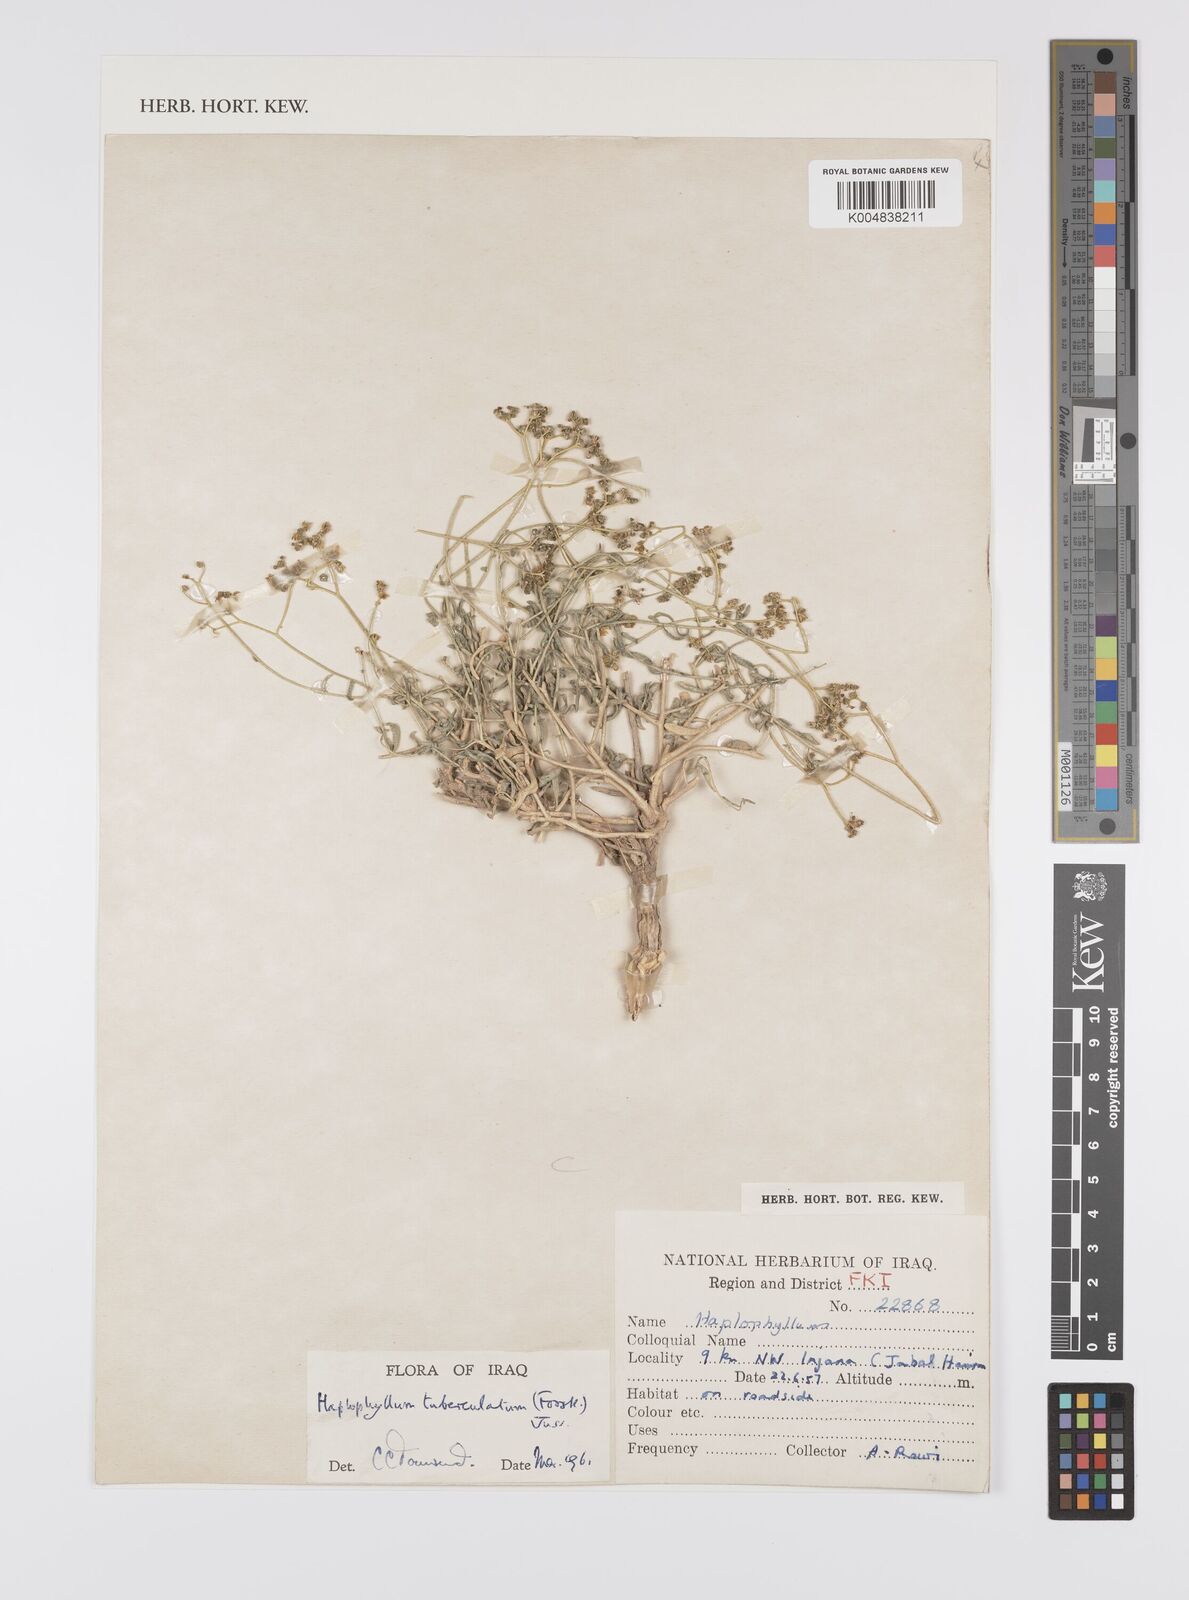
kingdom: Plantae
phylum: Tracheophyta
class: Magnoliopsida
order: Sapindales
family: Rutaceae
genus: Haplophyllum
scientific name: Haplophyllum tuberculatum
